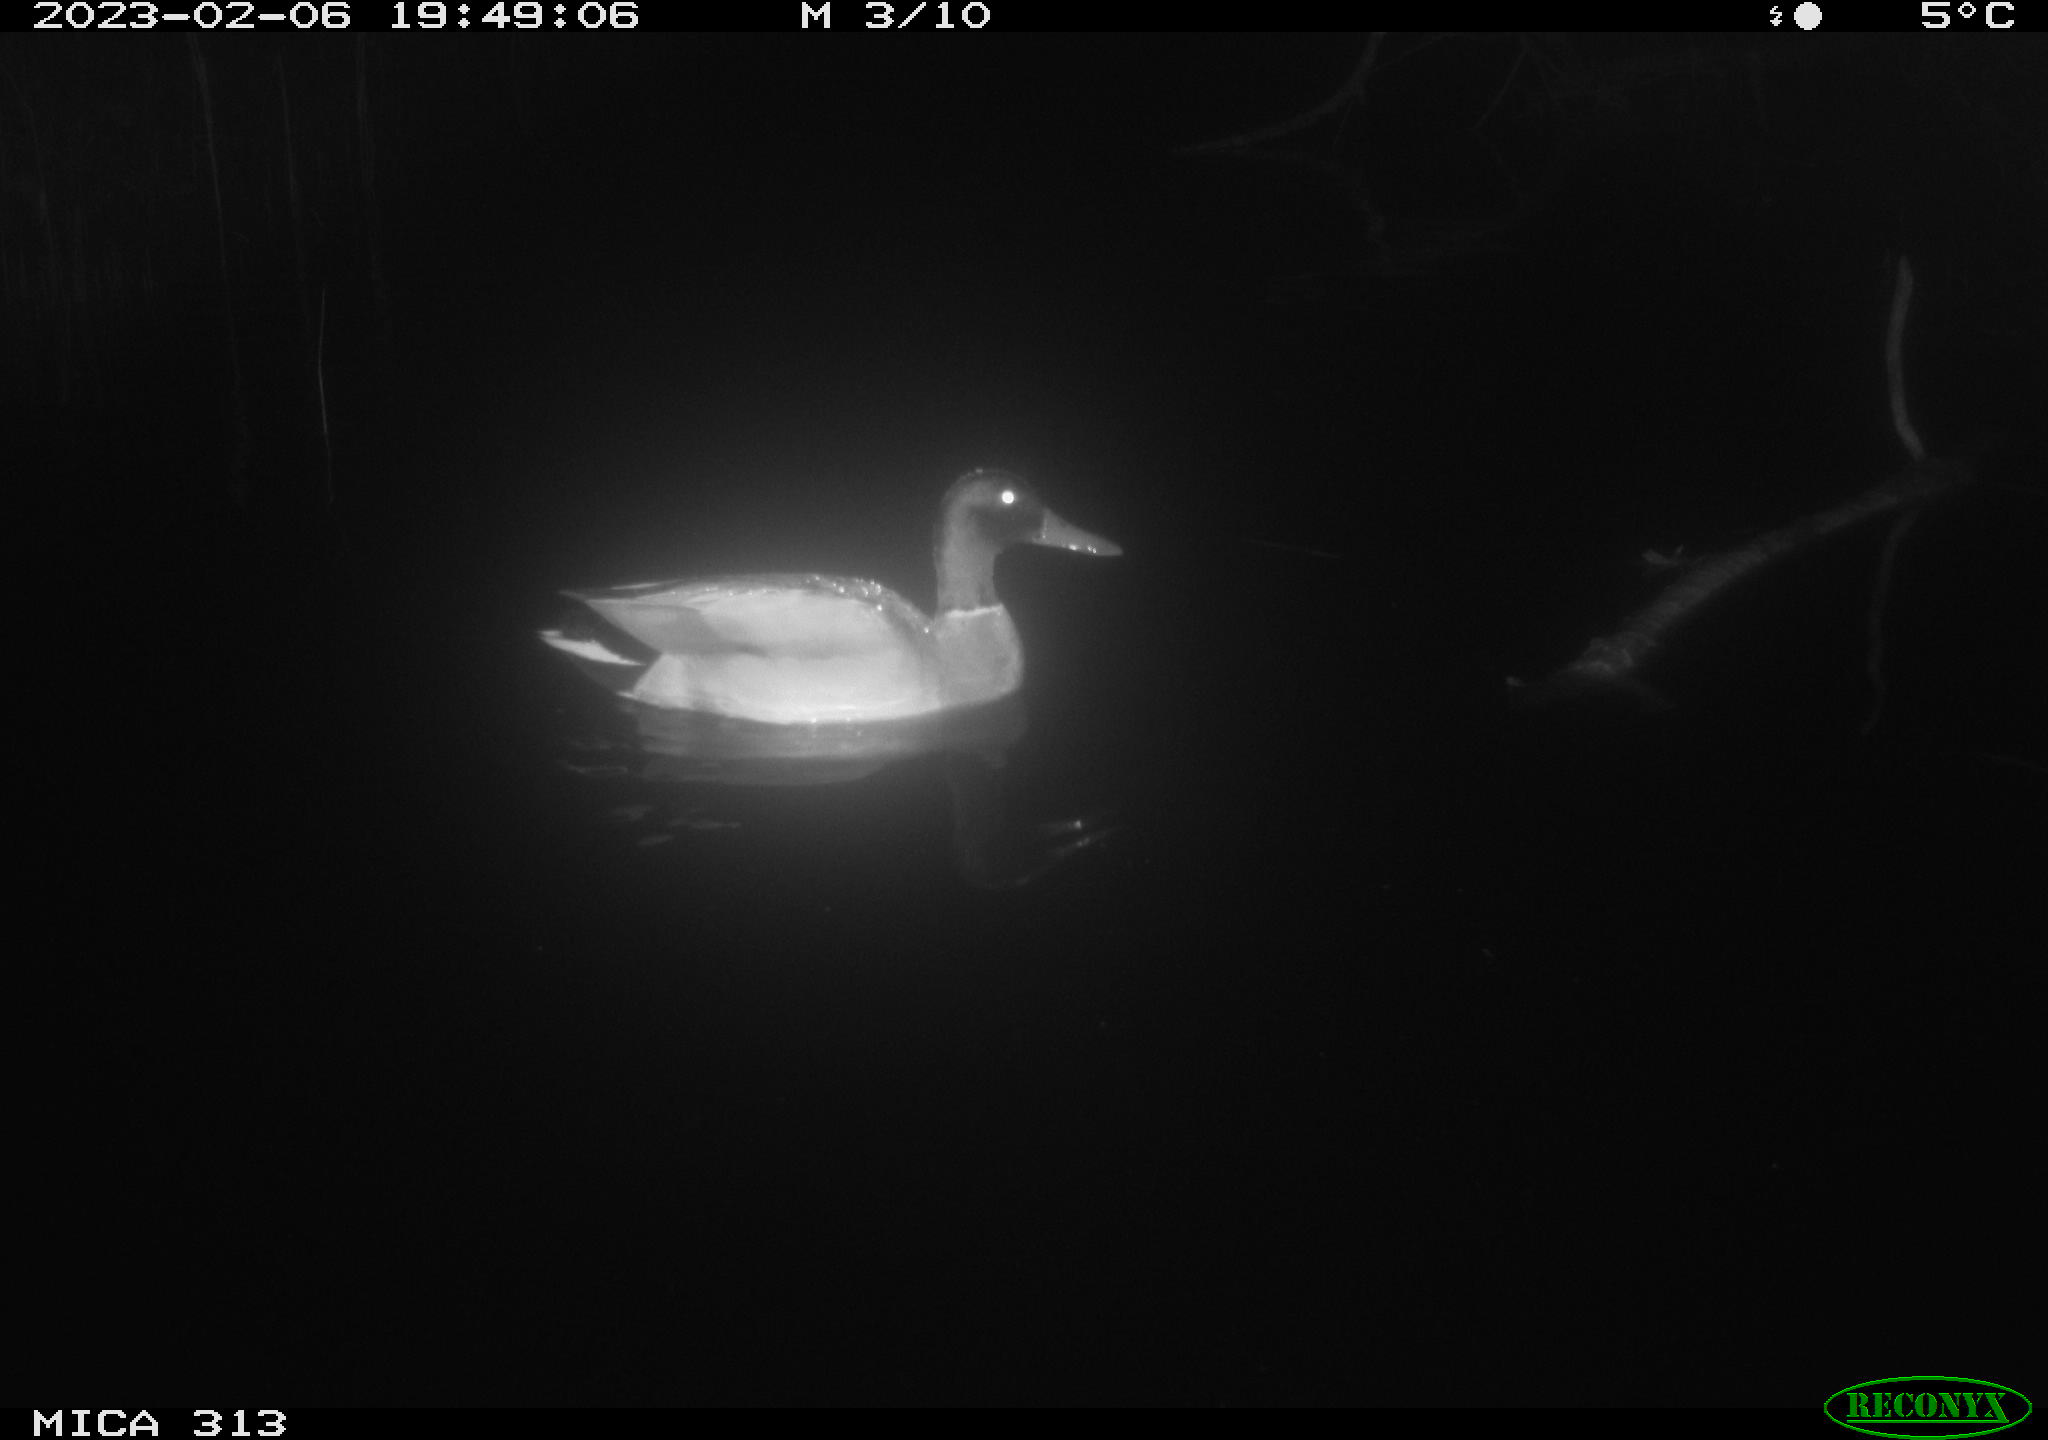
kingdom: Animalia
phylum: Chordata
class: Aves
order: Anseriformes
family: Anatidae
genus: Anas
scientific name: Anas
